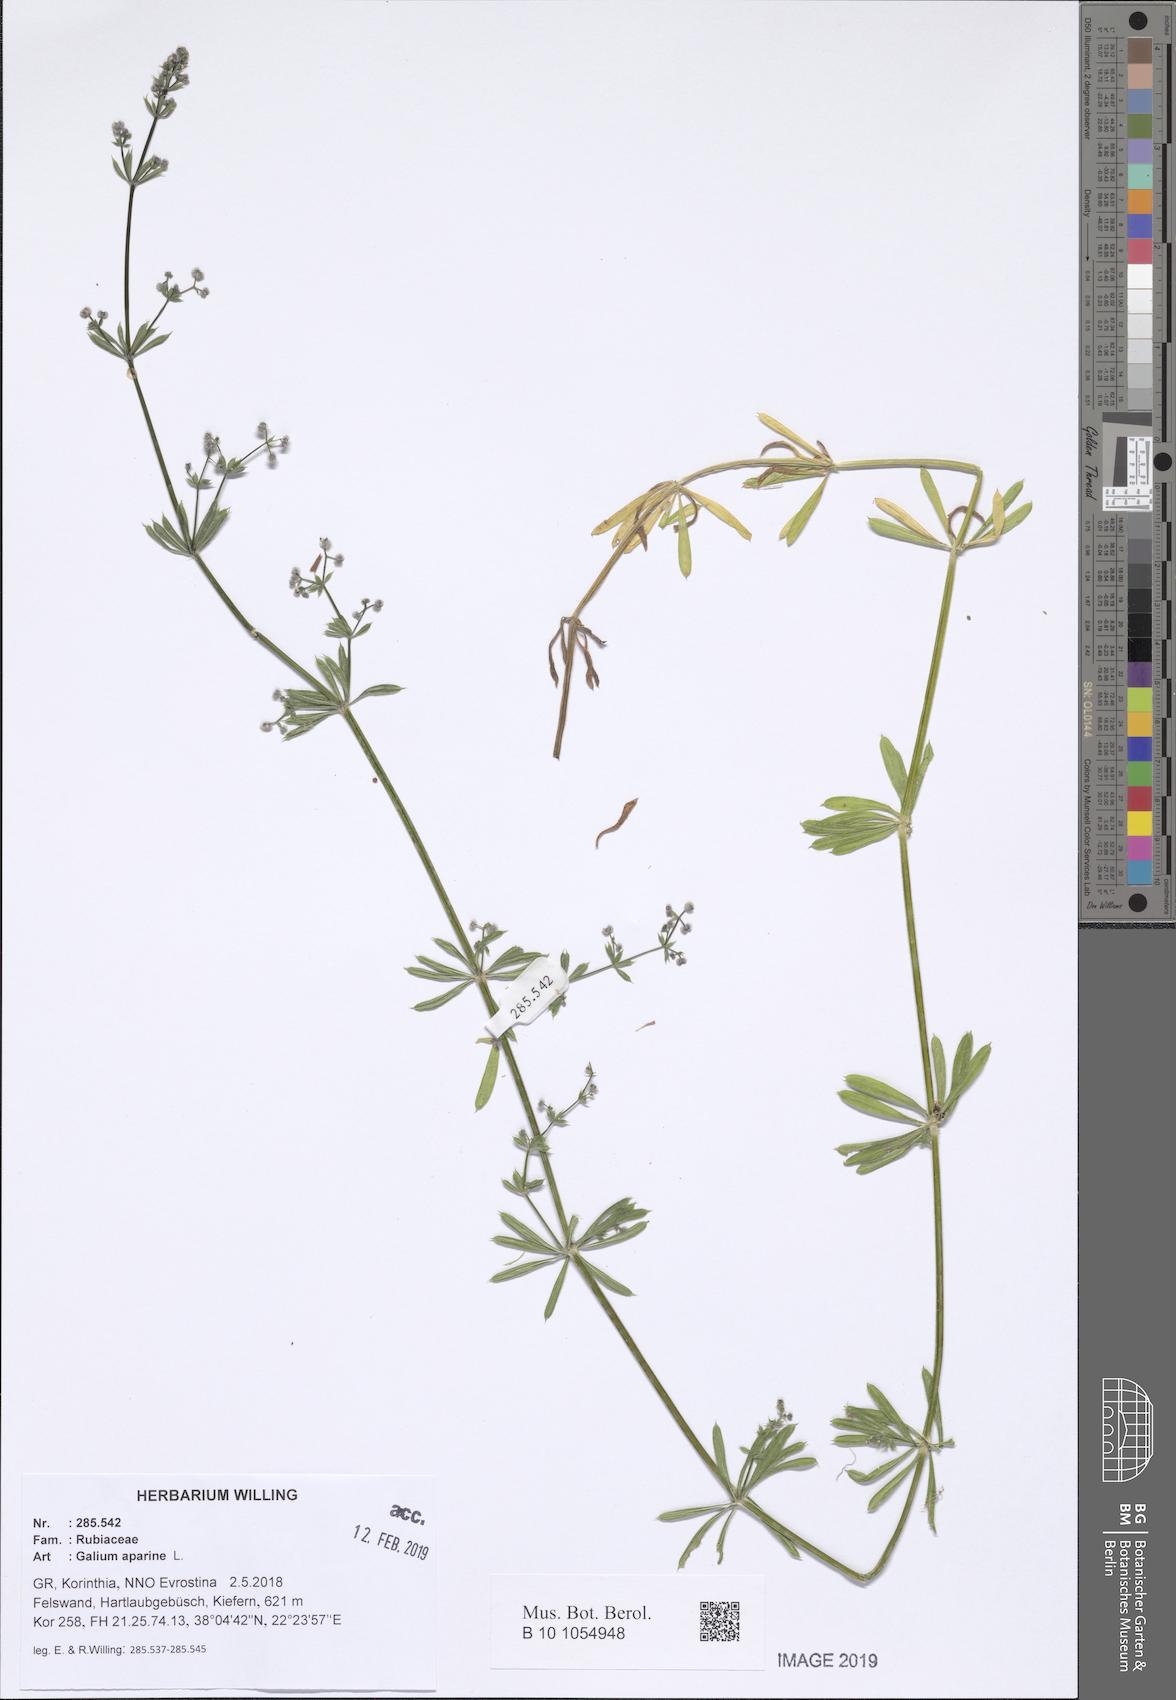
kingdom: Plantae
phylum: Tracheophyta
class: Magnoliopsida
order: Gentianales
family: Rubiaceae
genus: Galium
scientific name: Galium aparine
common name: Cleavers
